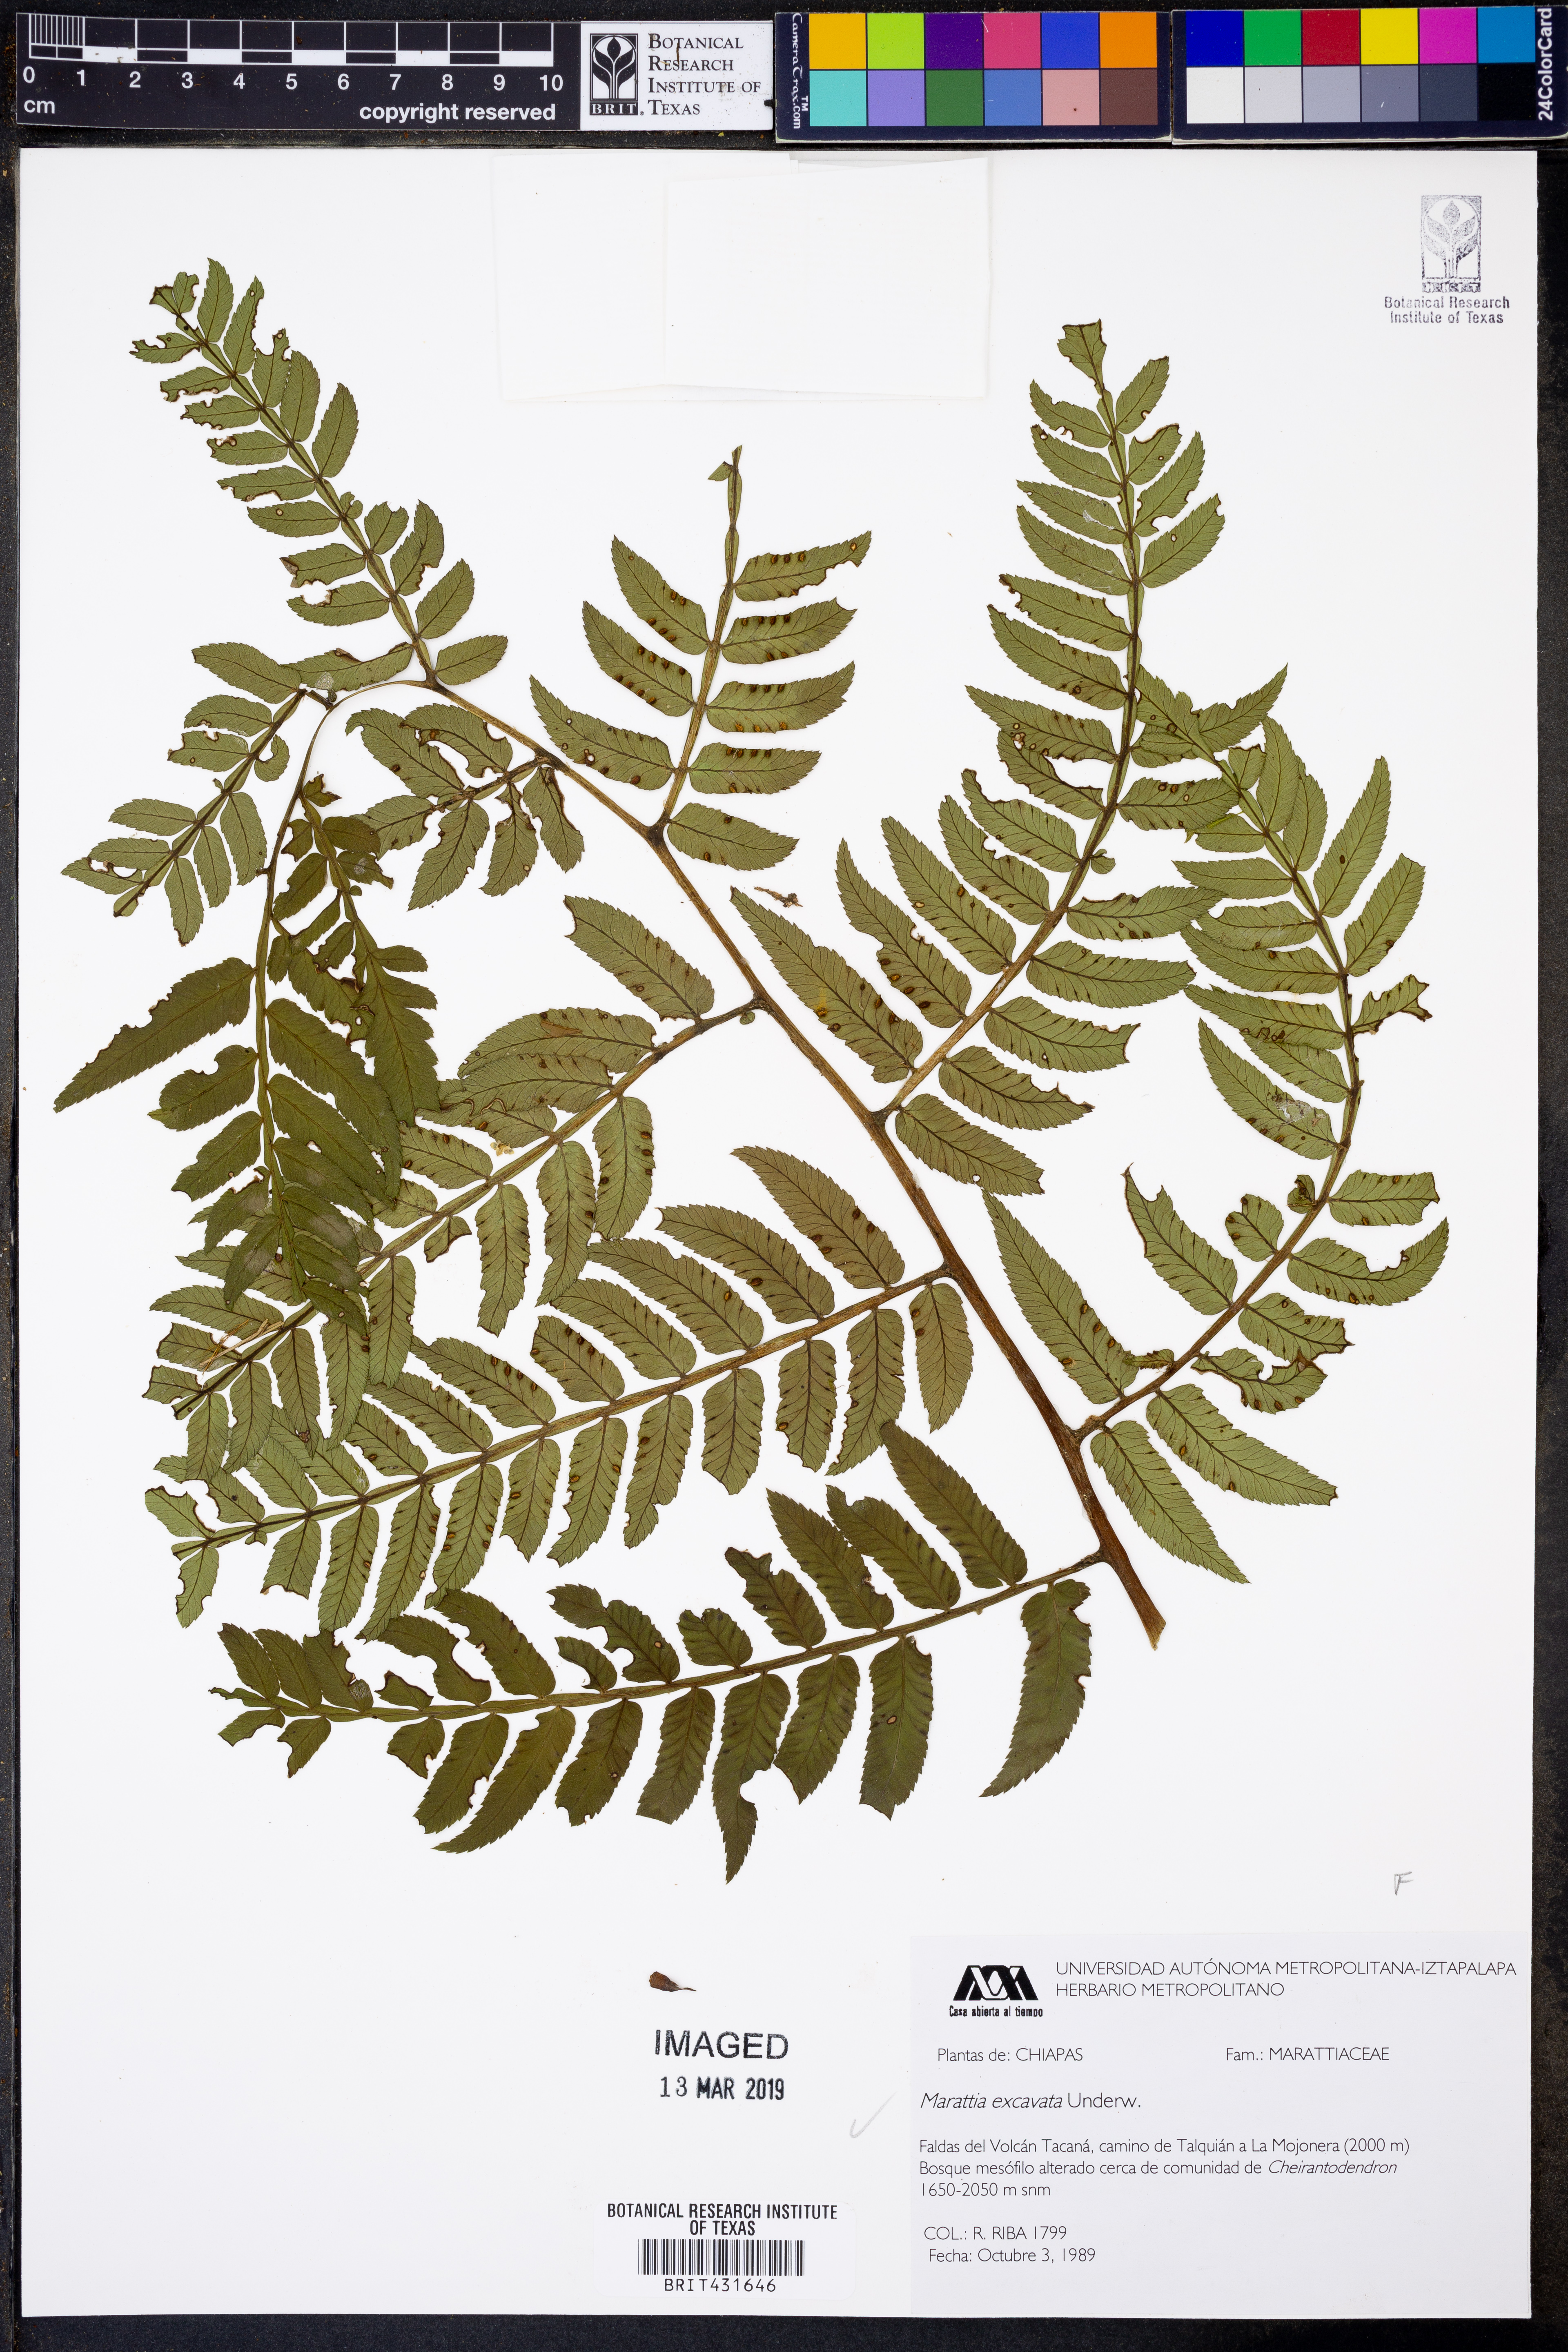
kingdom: Plantae
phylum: Tracheophyta
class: Polypodiopsida
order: Marattiales
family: Marattiaceae
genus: Marattia
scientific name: Marattia excavata
